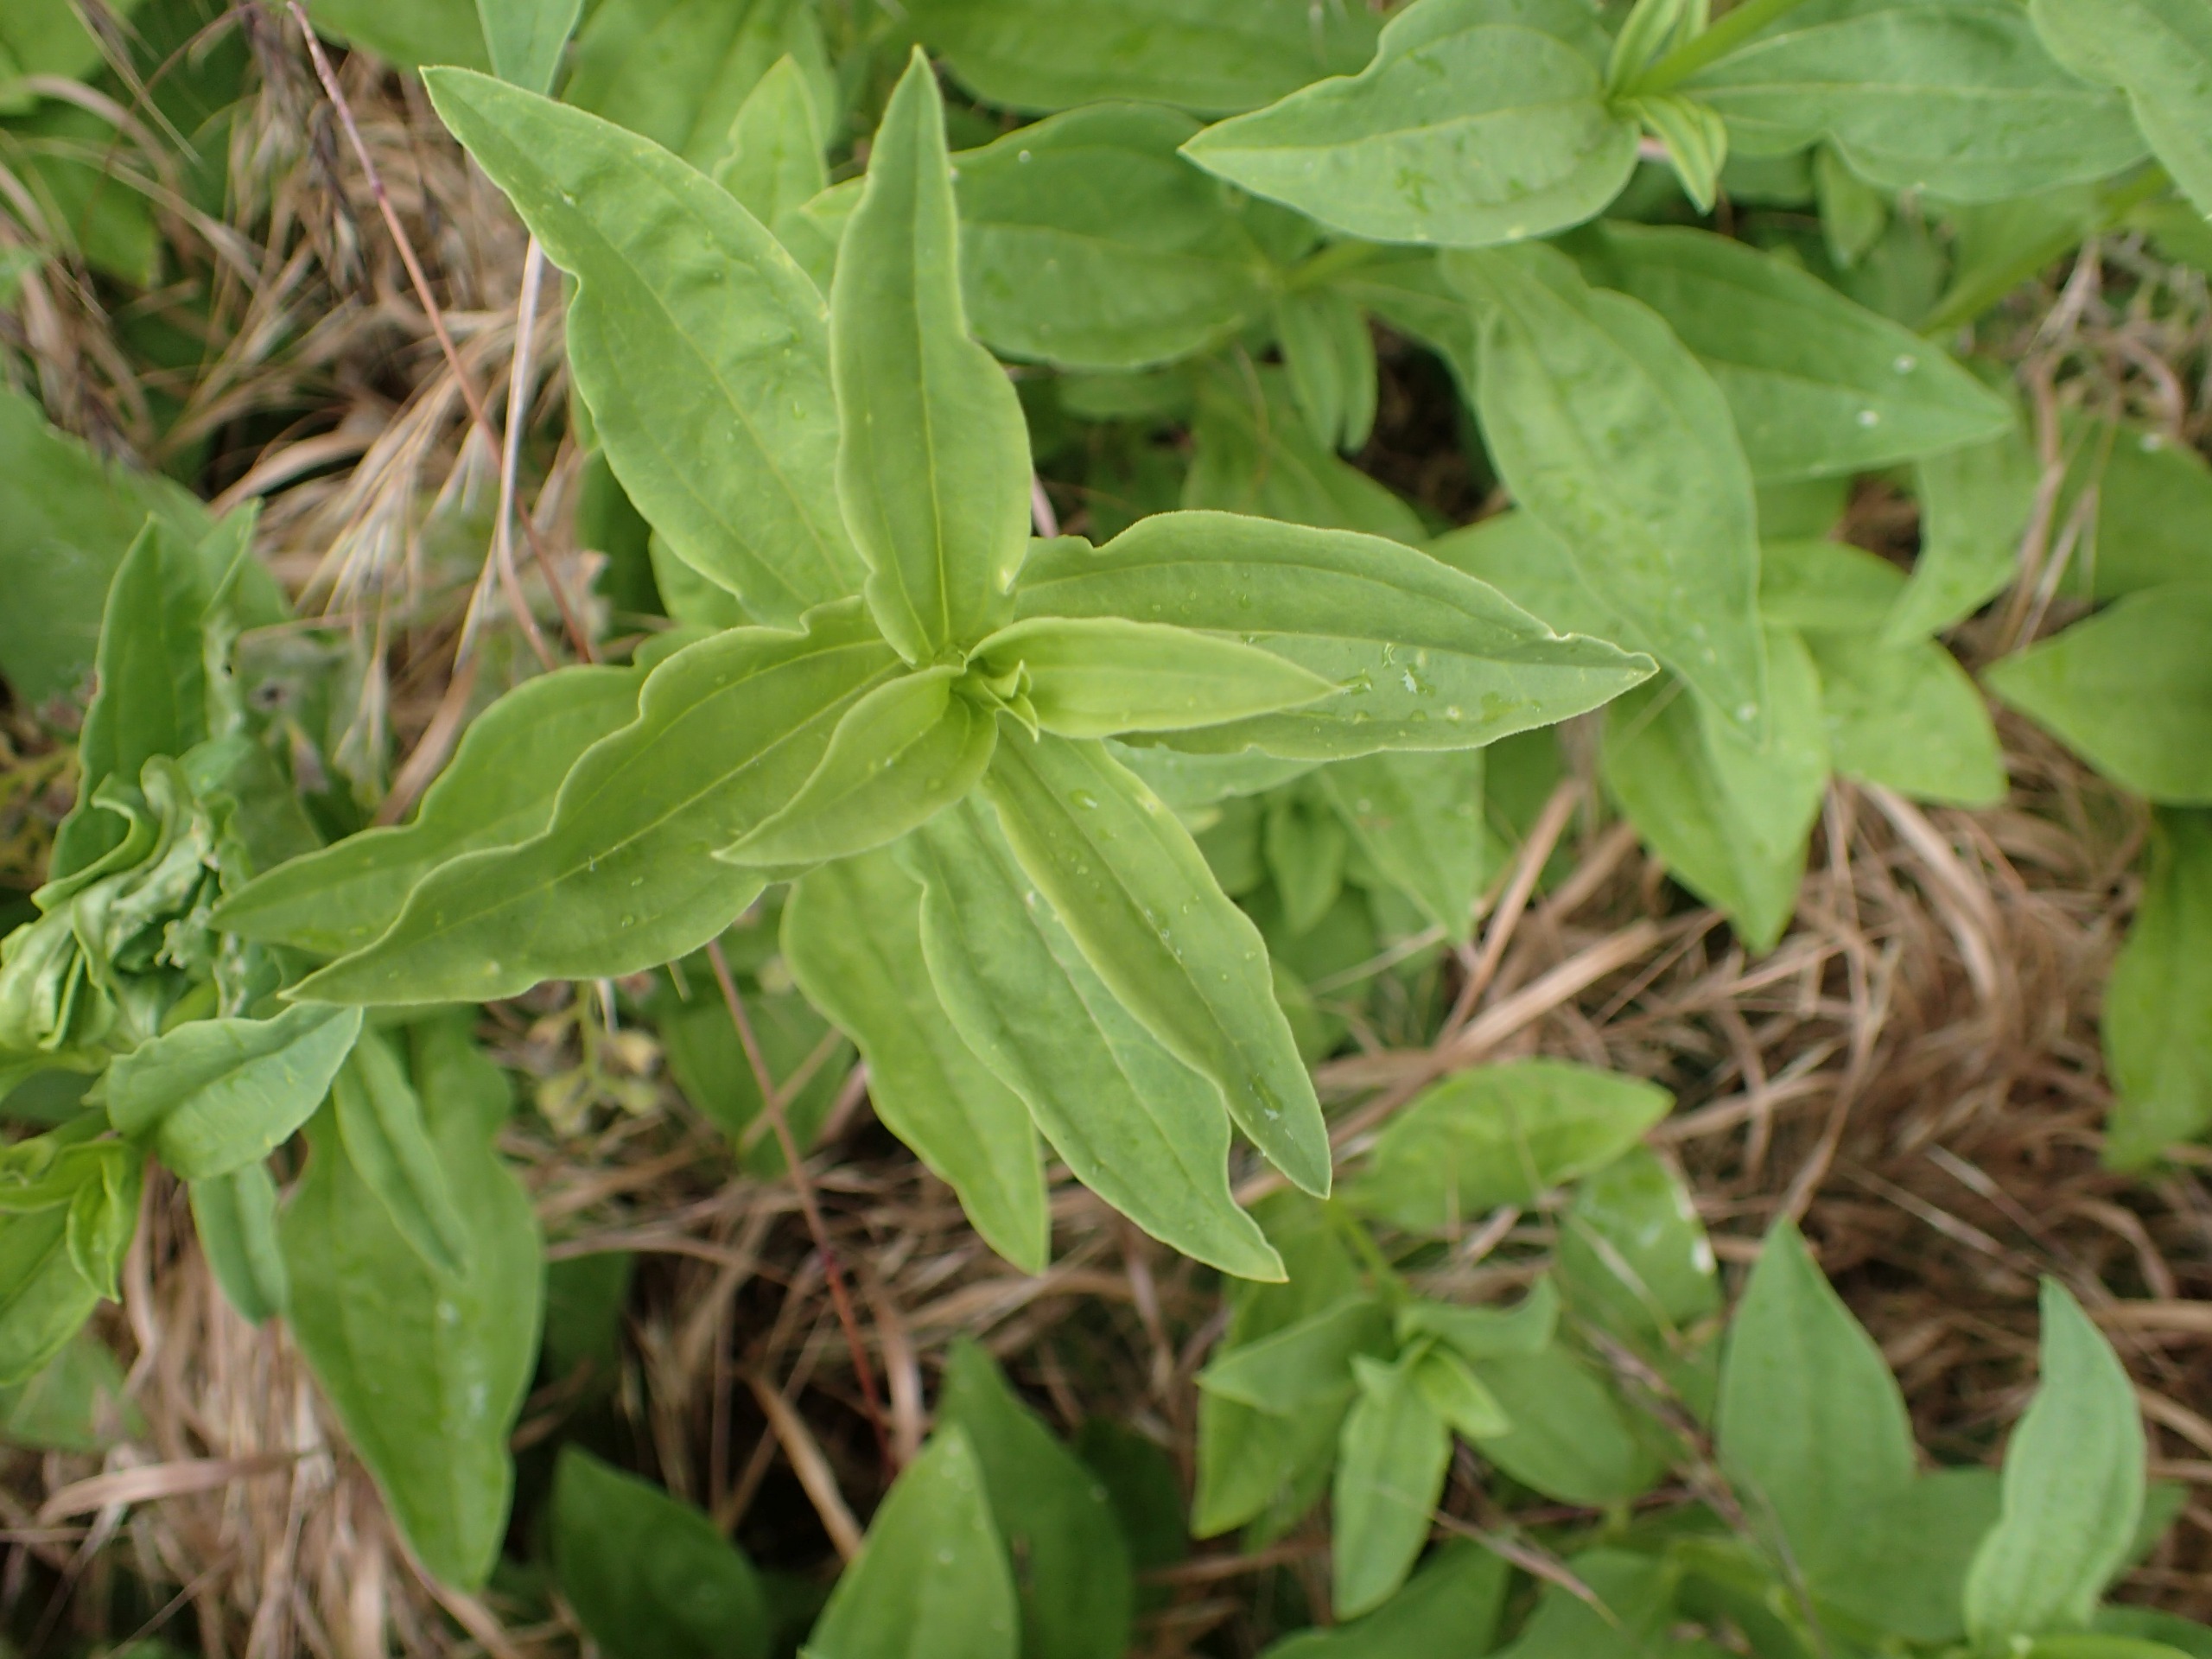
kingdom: Plantae
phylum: Tracheophyta
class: Magnoliopsida
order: Caryophyllales
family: Caryophyllaceae
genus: Saponaria
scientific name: Saponaria officinalis
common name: Sæbeurt
